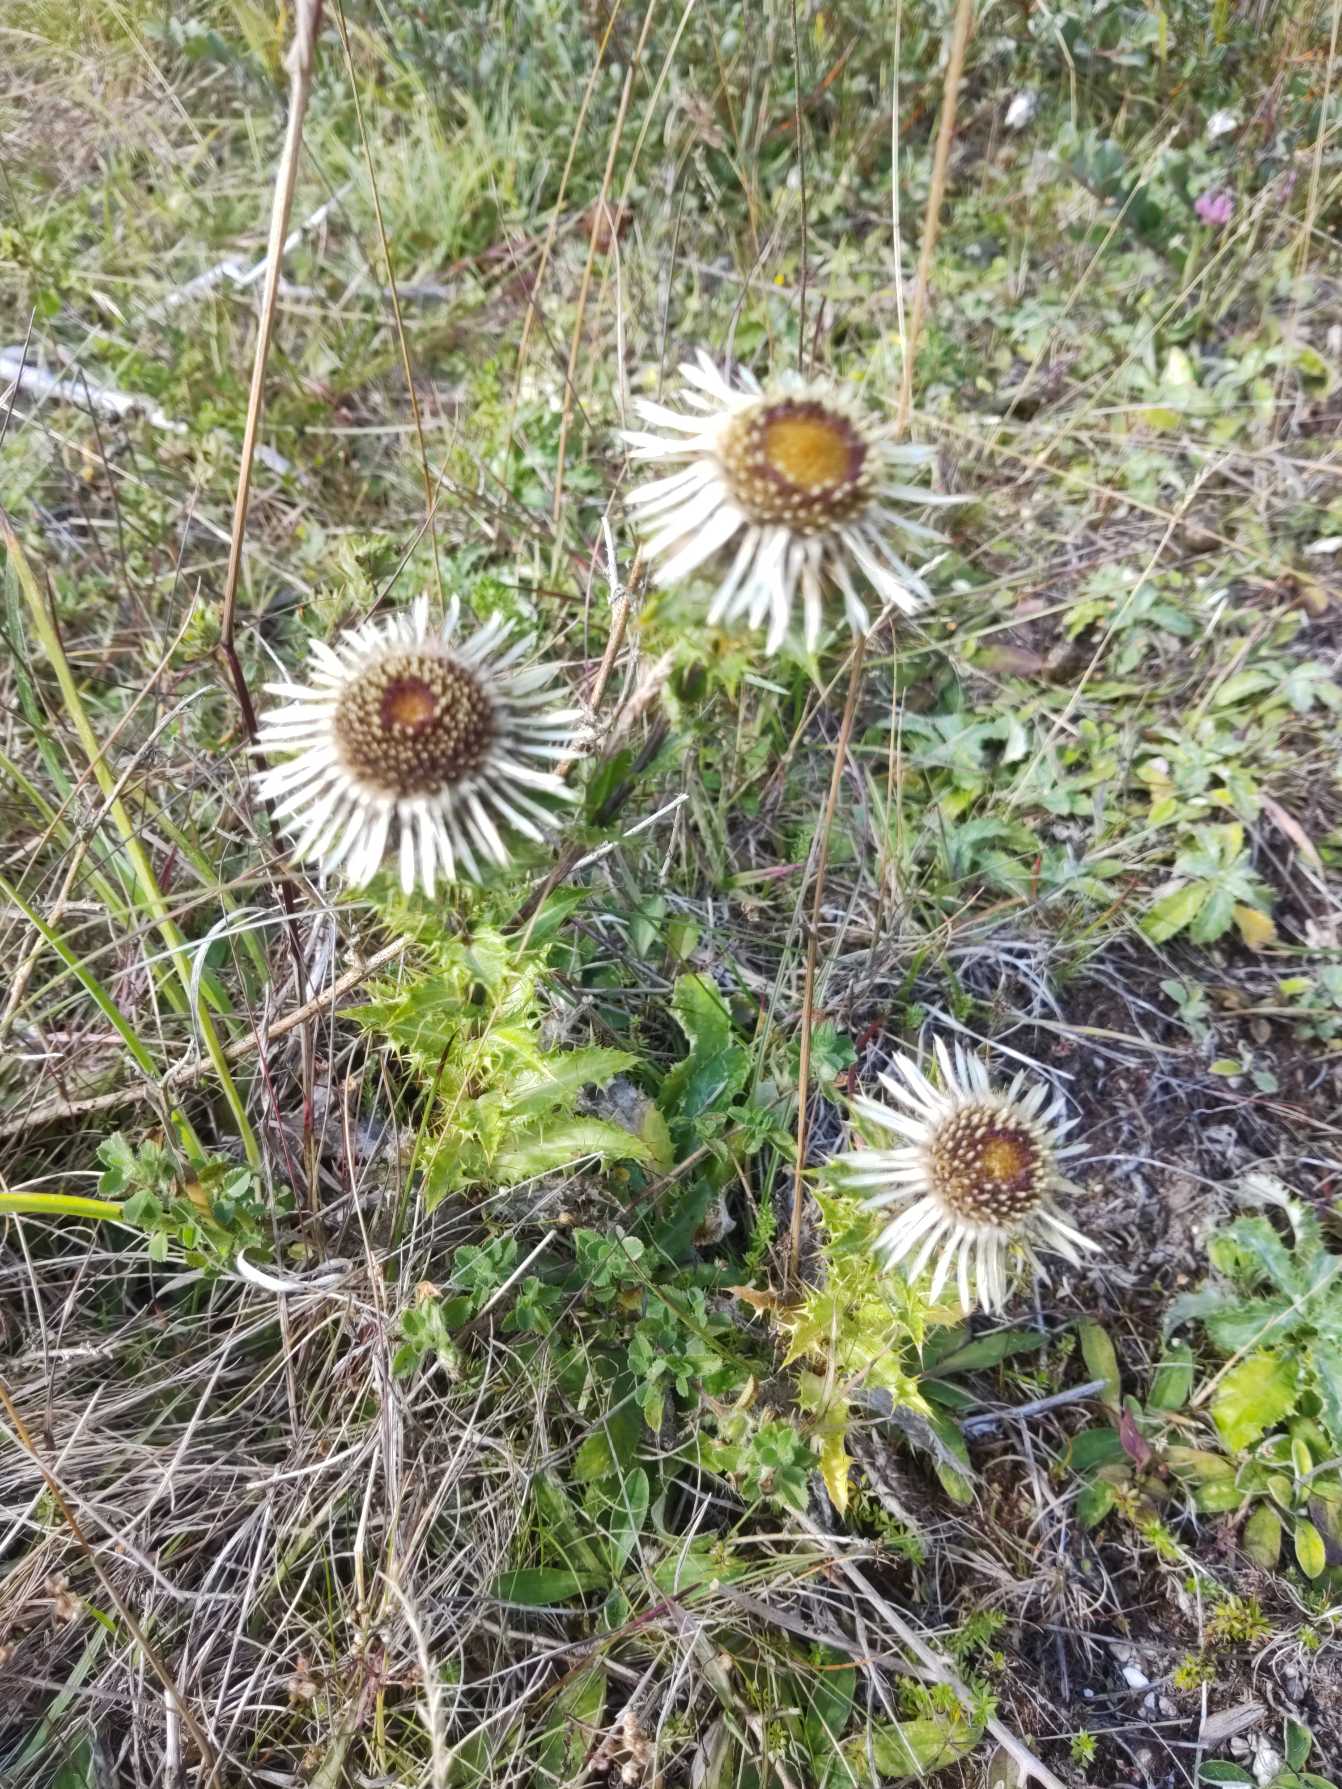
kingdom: Plantae
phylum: Tracheophyta
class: Magnoliopsida
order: Asterales
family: Asteraceae
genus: Carlina
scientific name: Carlina vulgaris
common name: Bakketidsel
